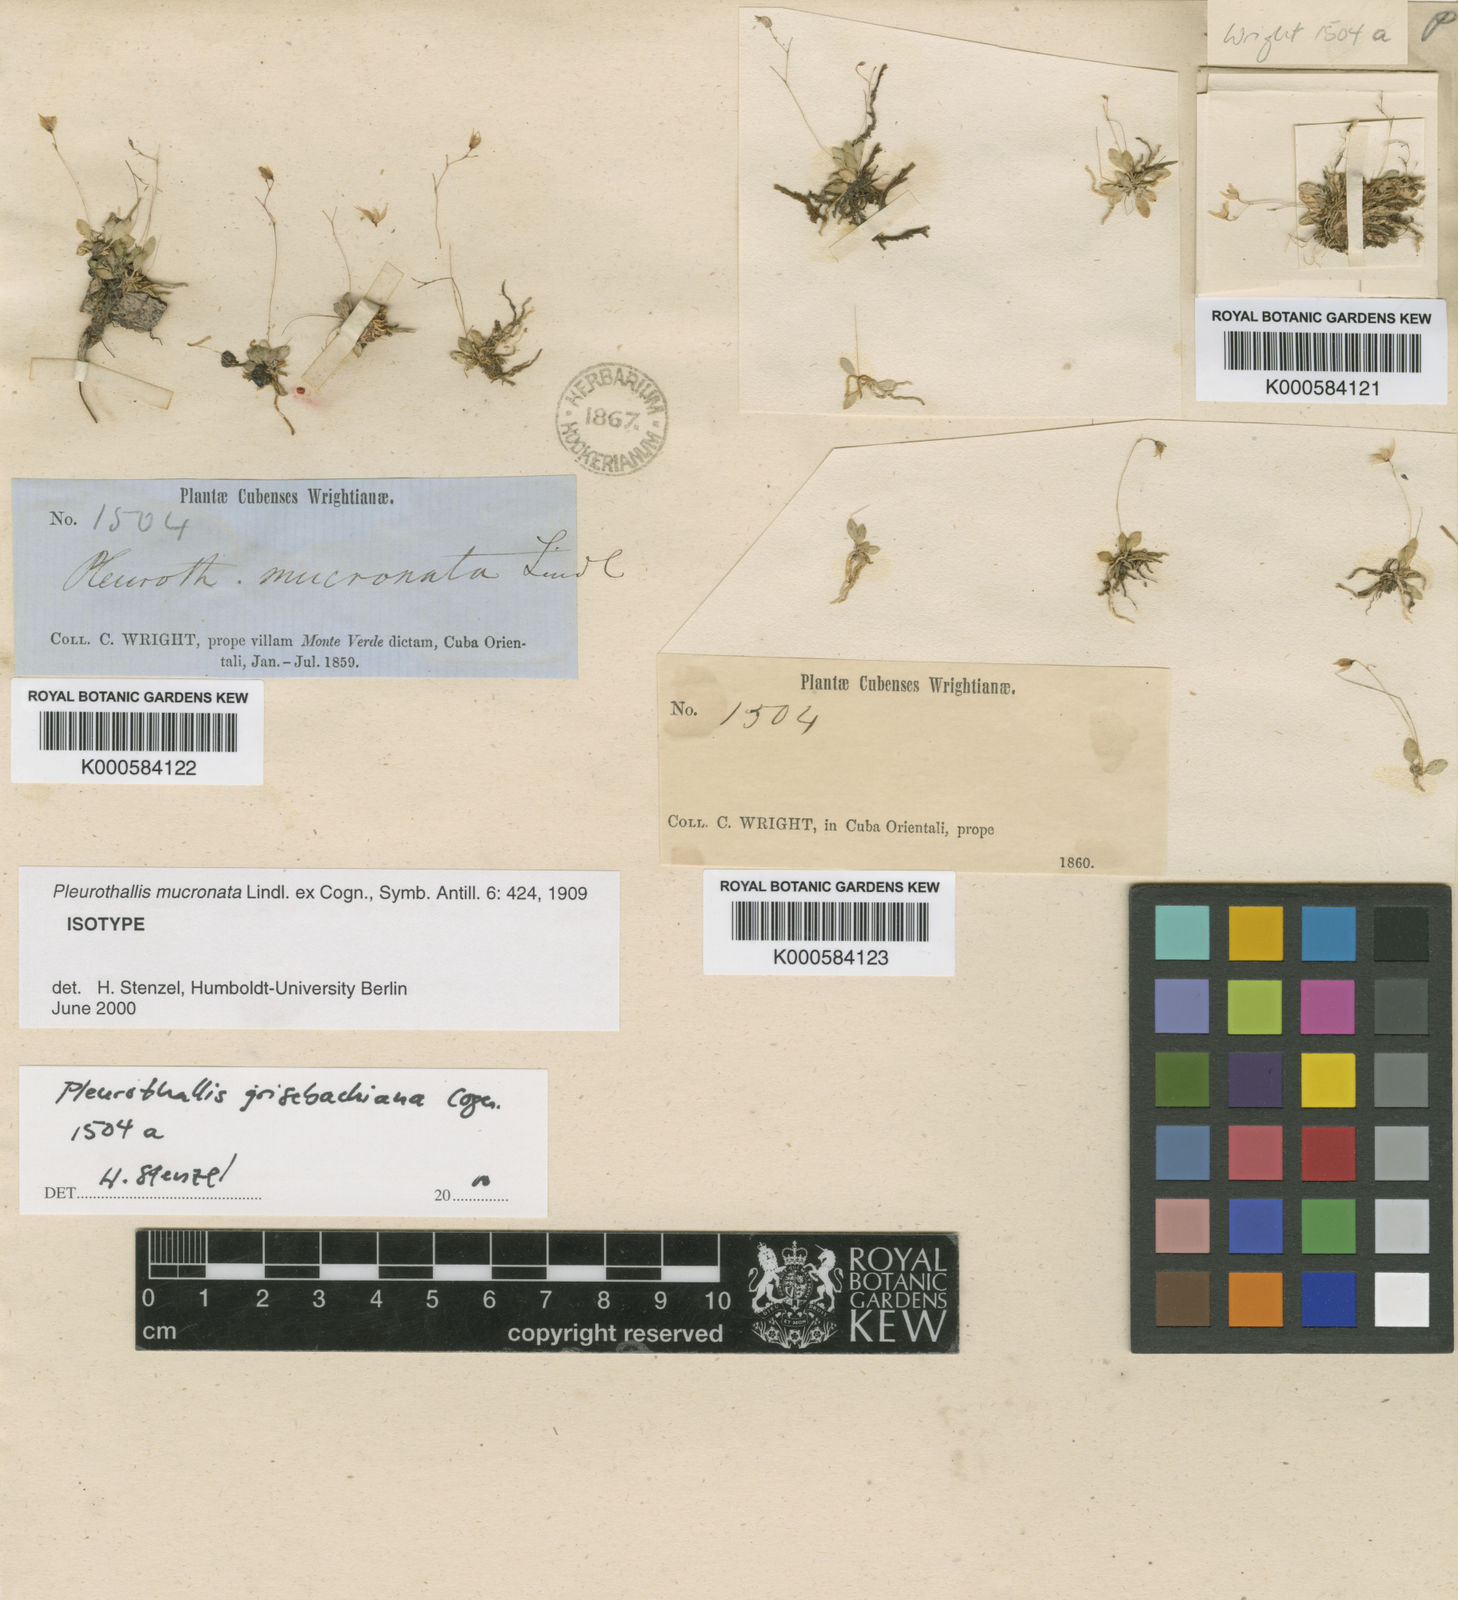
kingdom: Plantae
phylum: Tracheophyta
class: Liliopsida
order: Asparagales
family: Orchidaceae
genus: Muscarella
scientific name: Muscarella mucronata
